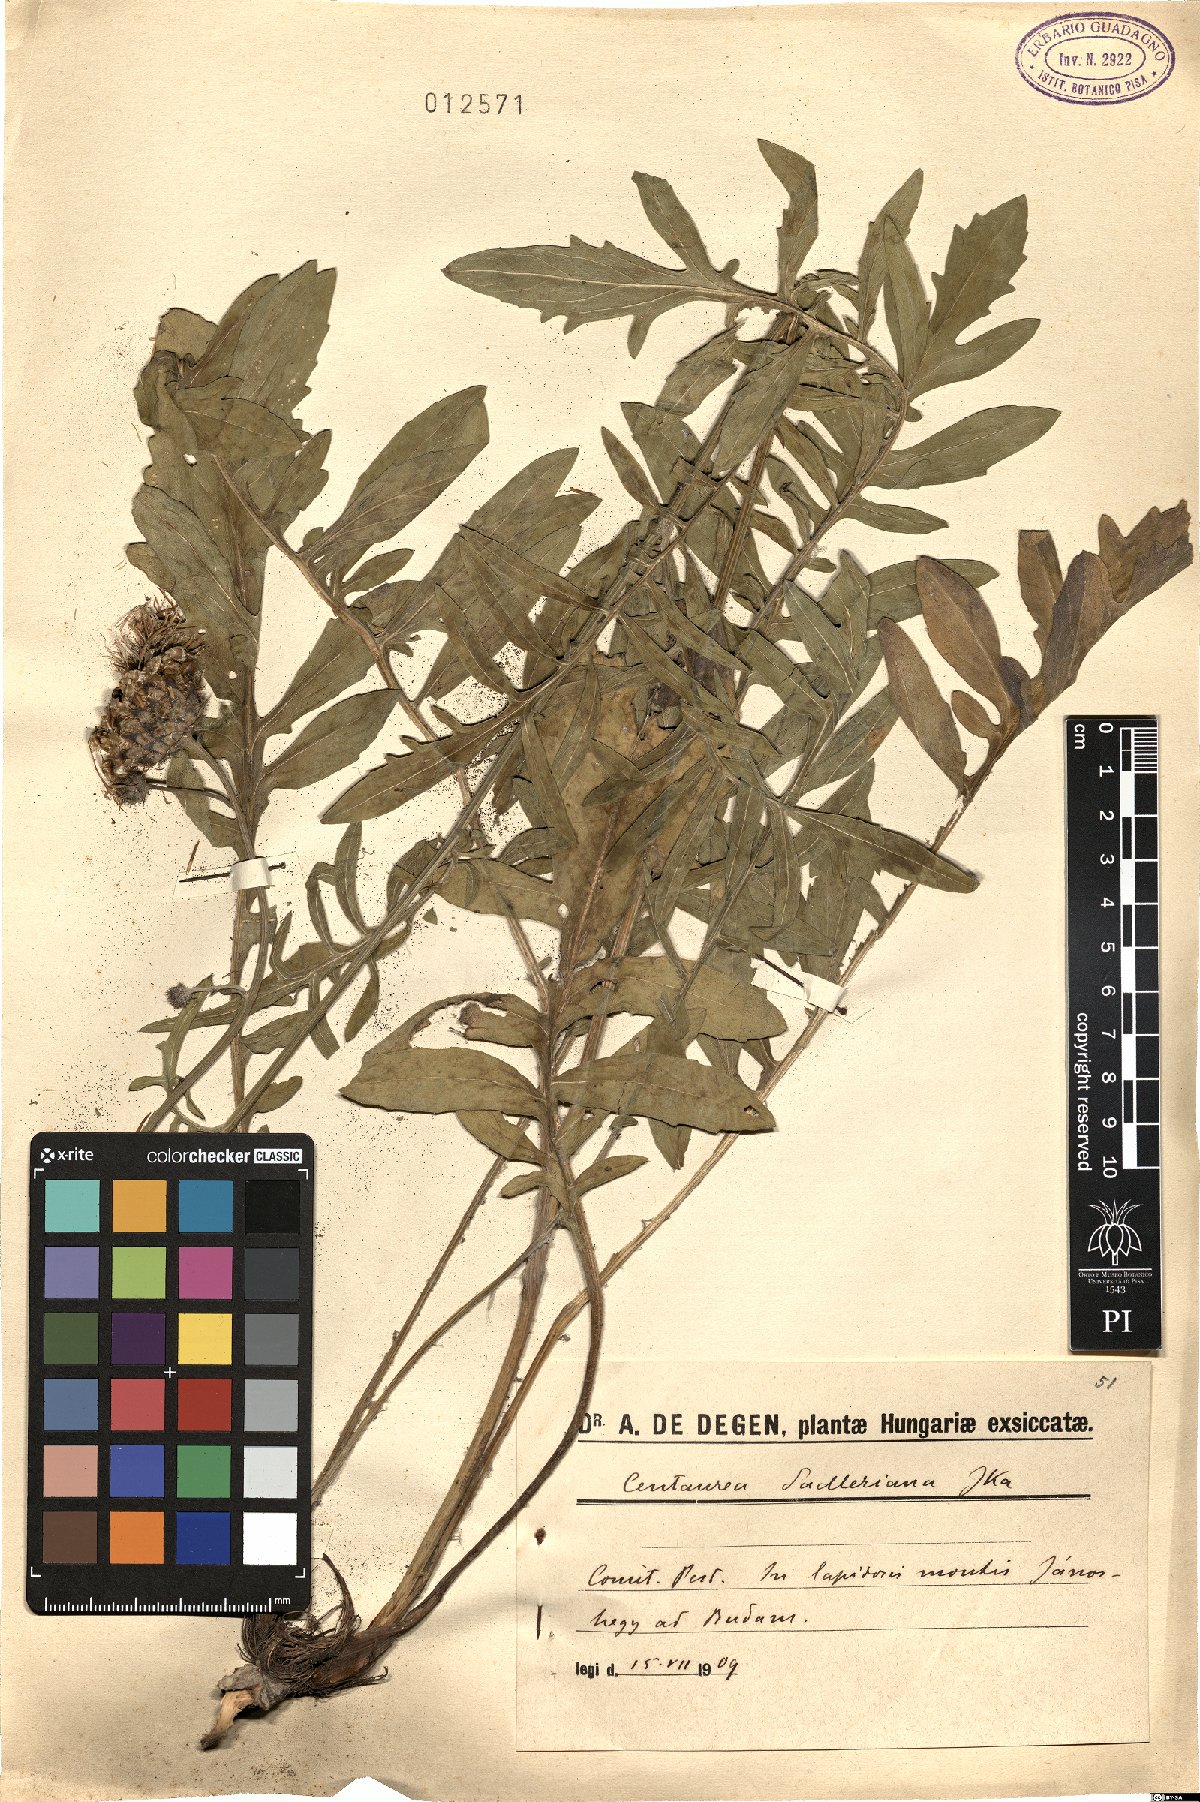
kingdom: Plantae
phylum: Tracheophyta
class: Magnoliopsida
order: Asterales
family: Asteraceae
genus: Centaurea
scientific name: Centaurea sadleriana
